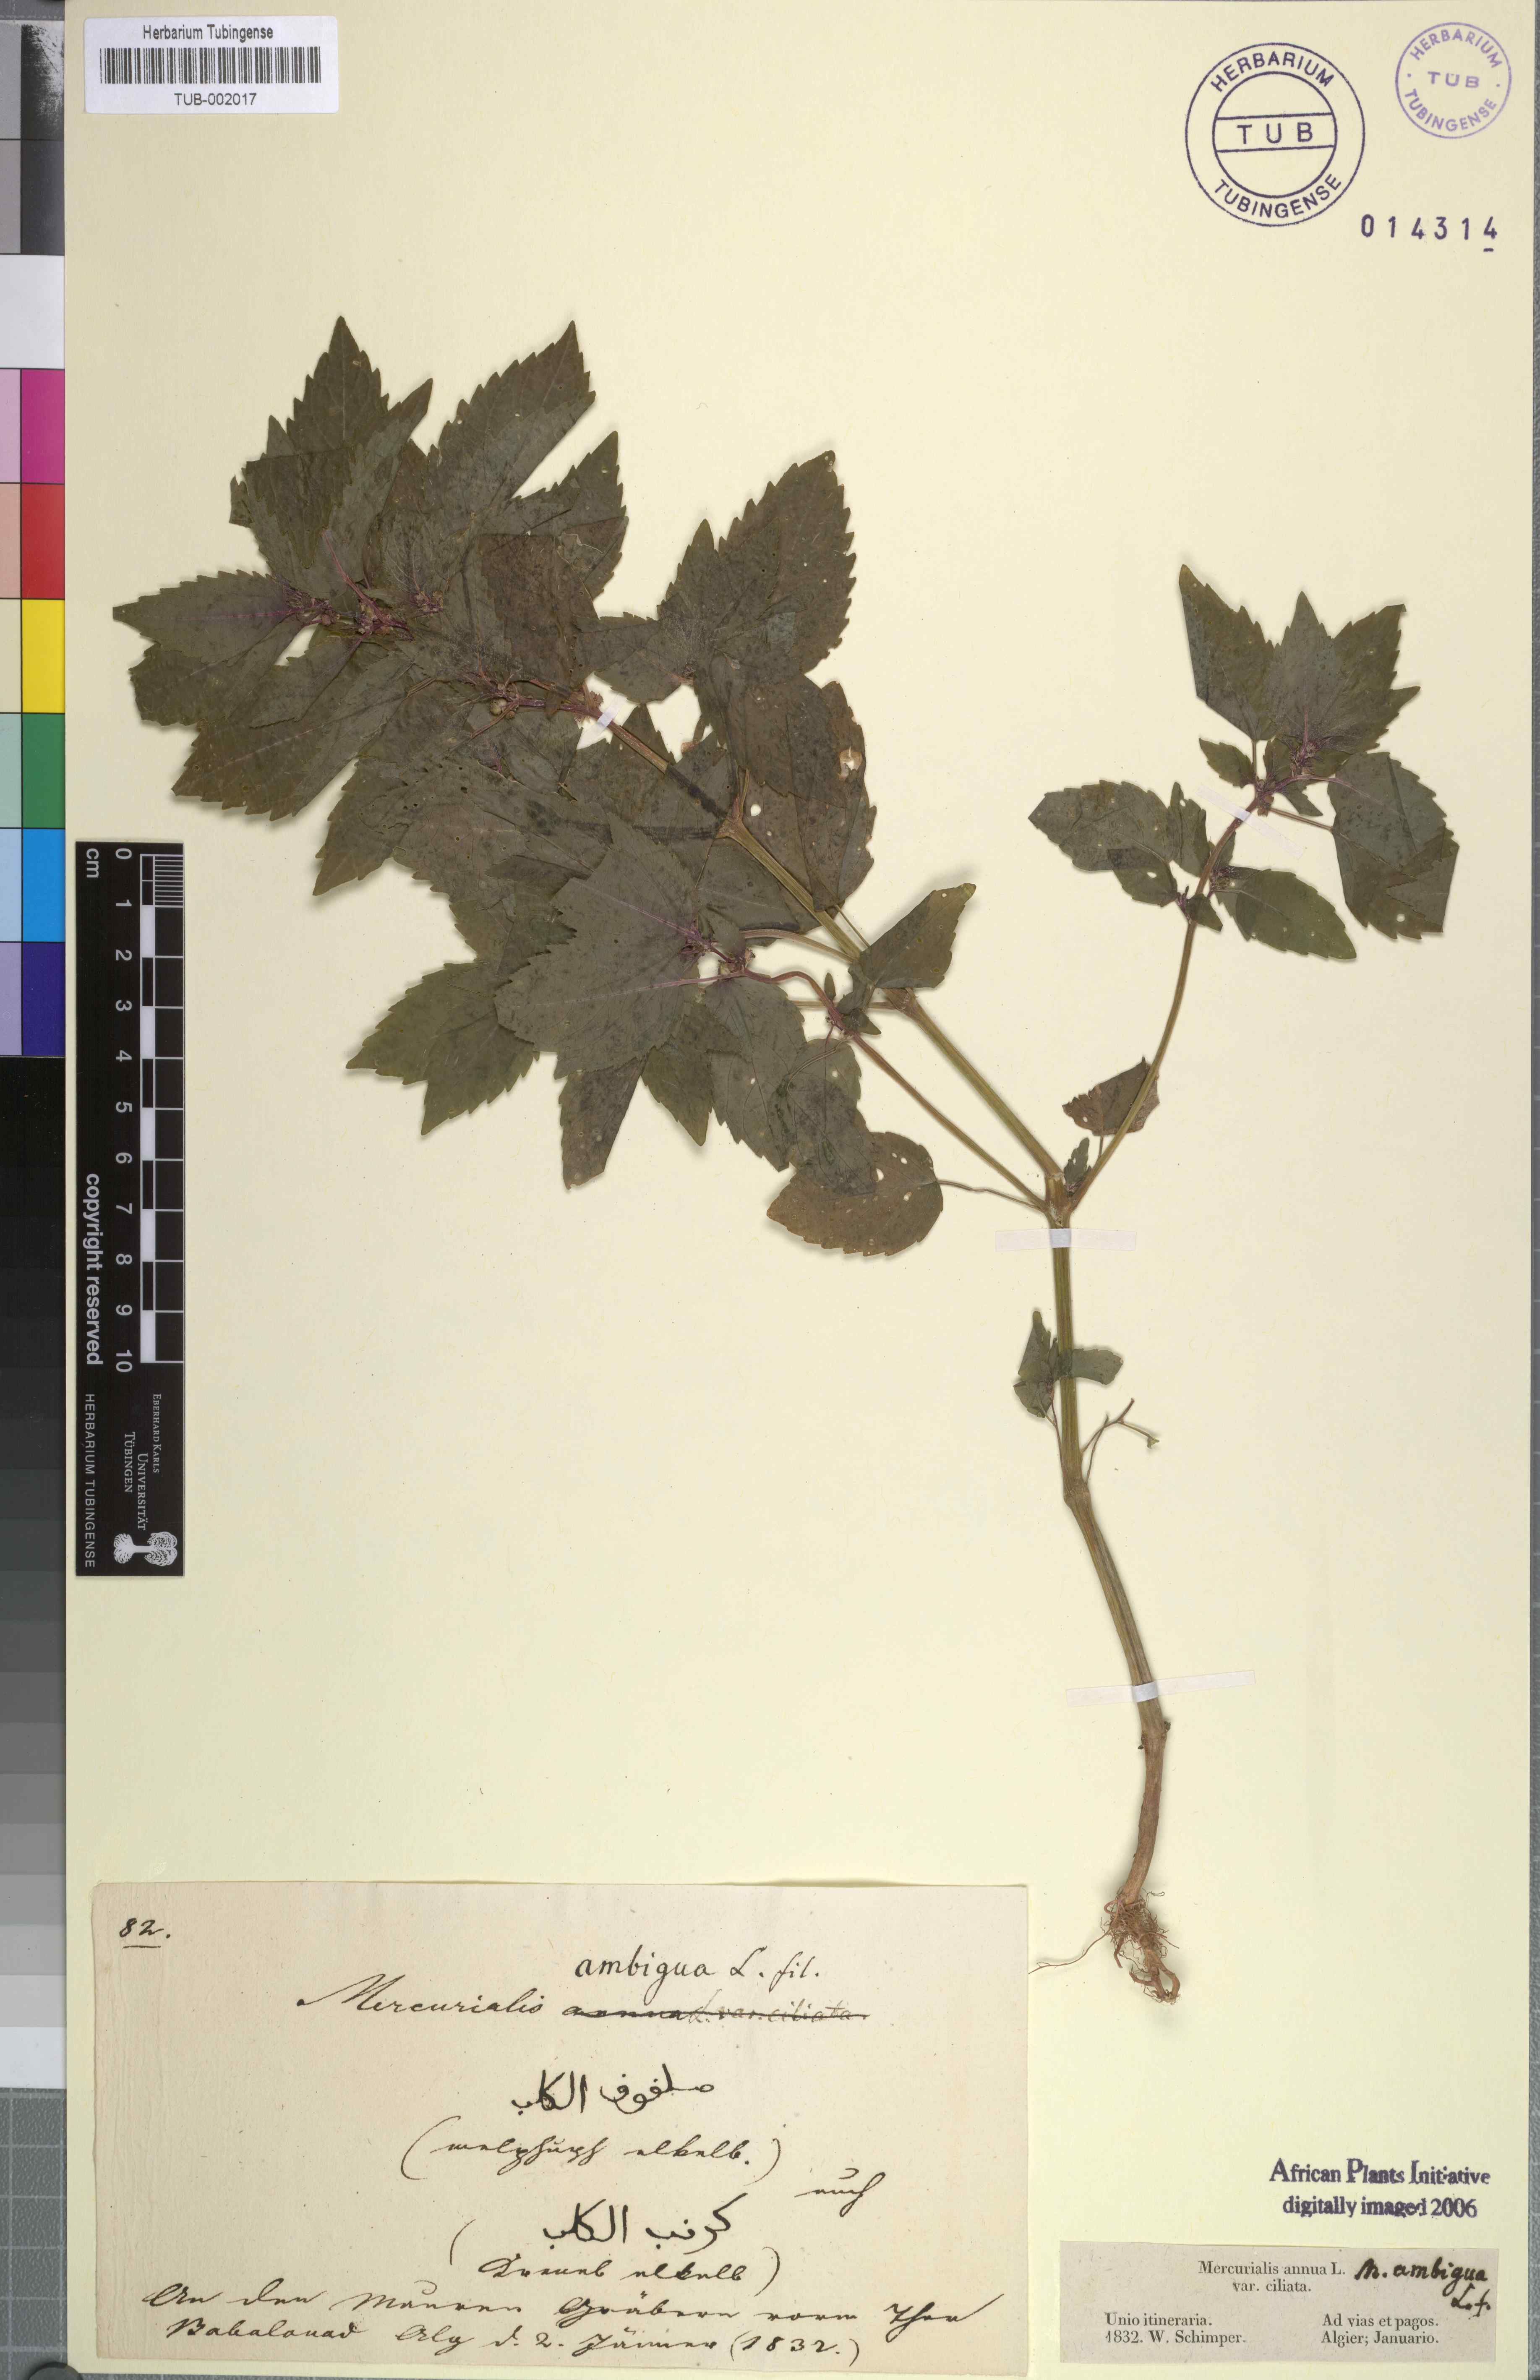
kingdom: Plantae
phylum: Tracheophyta
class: Magnoliopsida
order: Malpighiales
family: Euphorbiaceae
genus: Mercurialis
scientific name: Mercurialis annua
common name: Annual mercury
